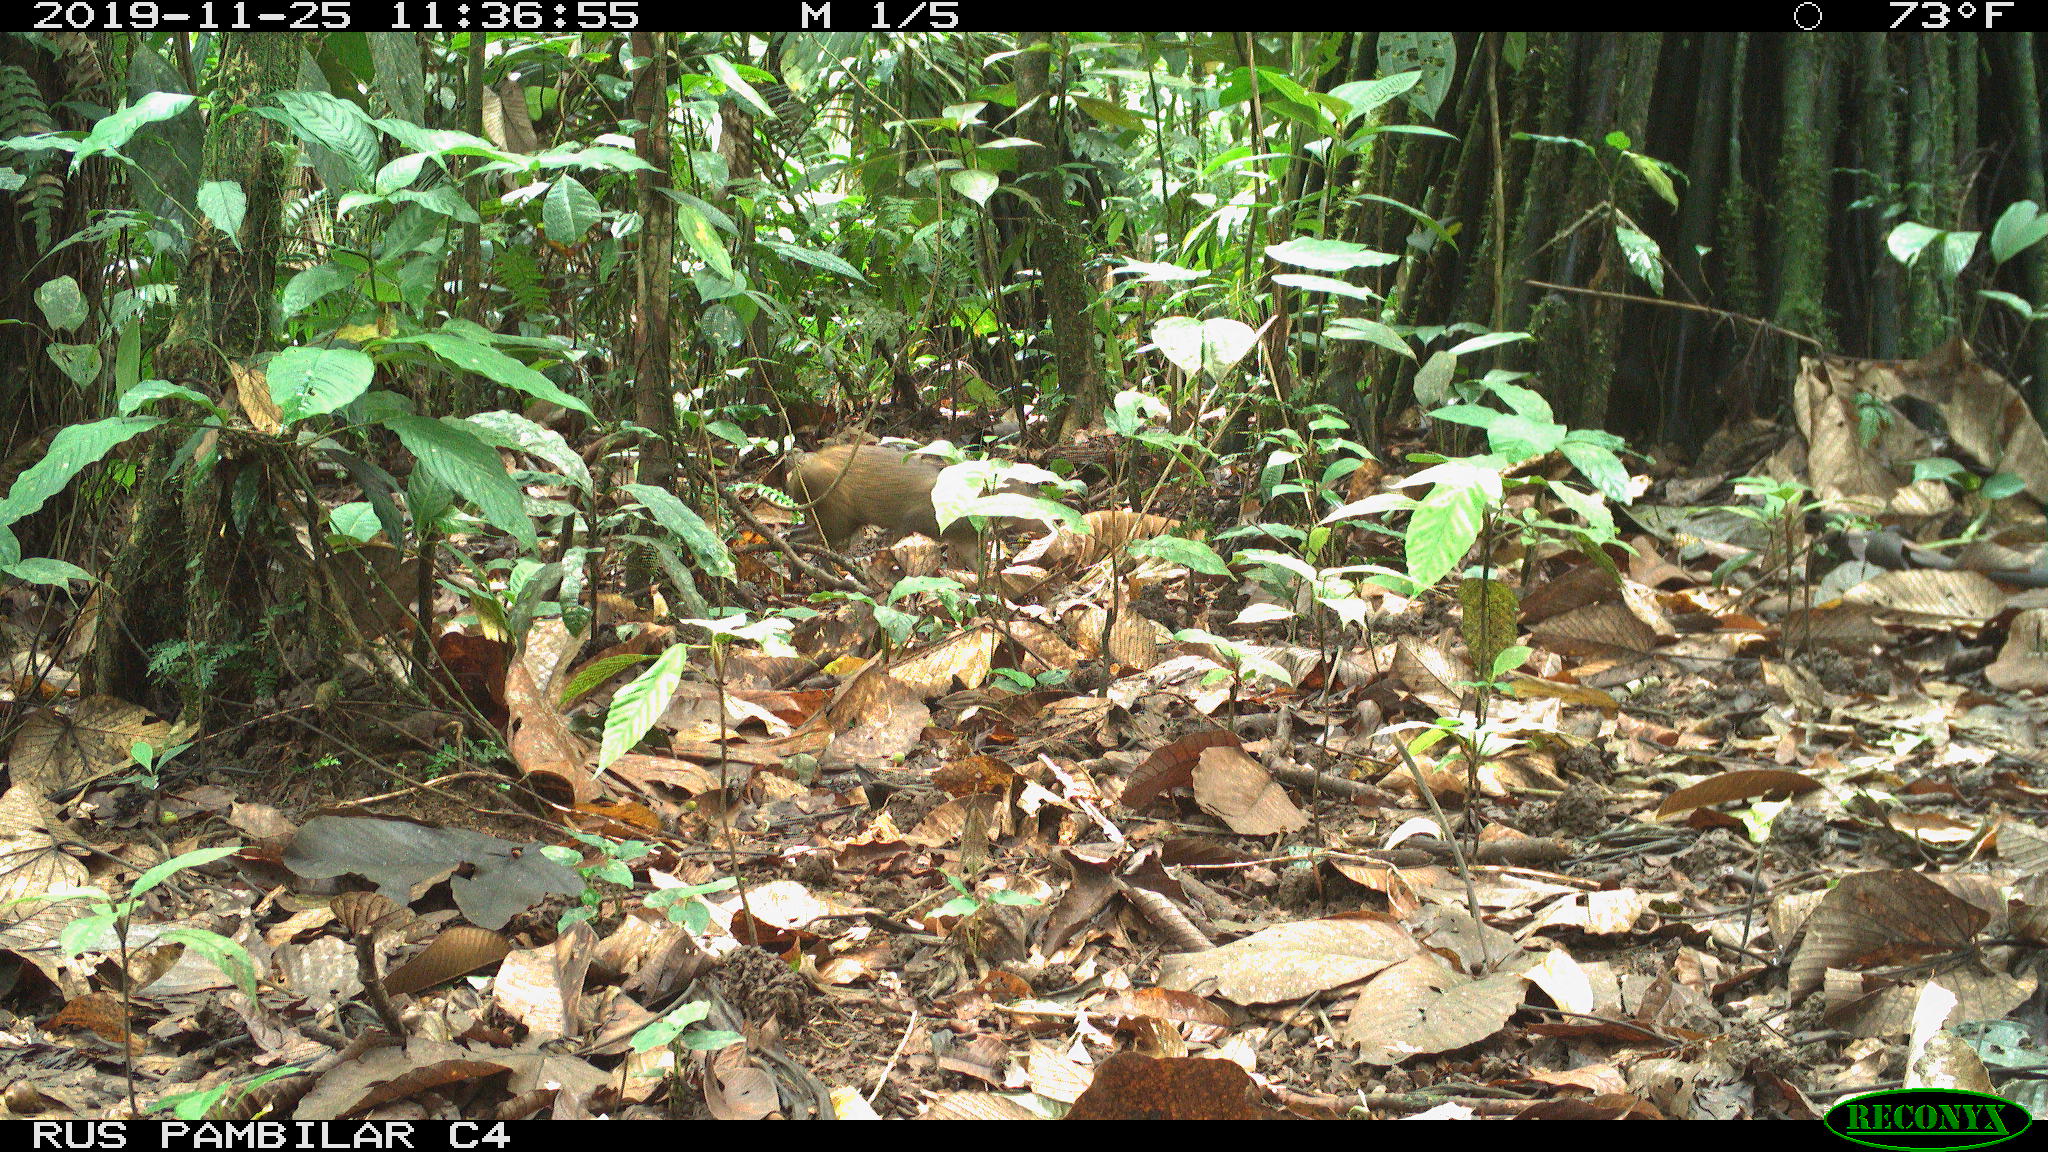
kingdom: Animalia
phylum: Chordata
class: Mammalia
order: Rodentia
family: Dasyproctidae
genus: Dasyprocta
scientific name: Dasyprocta punctata
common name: Central american agouti
